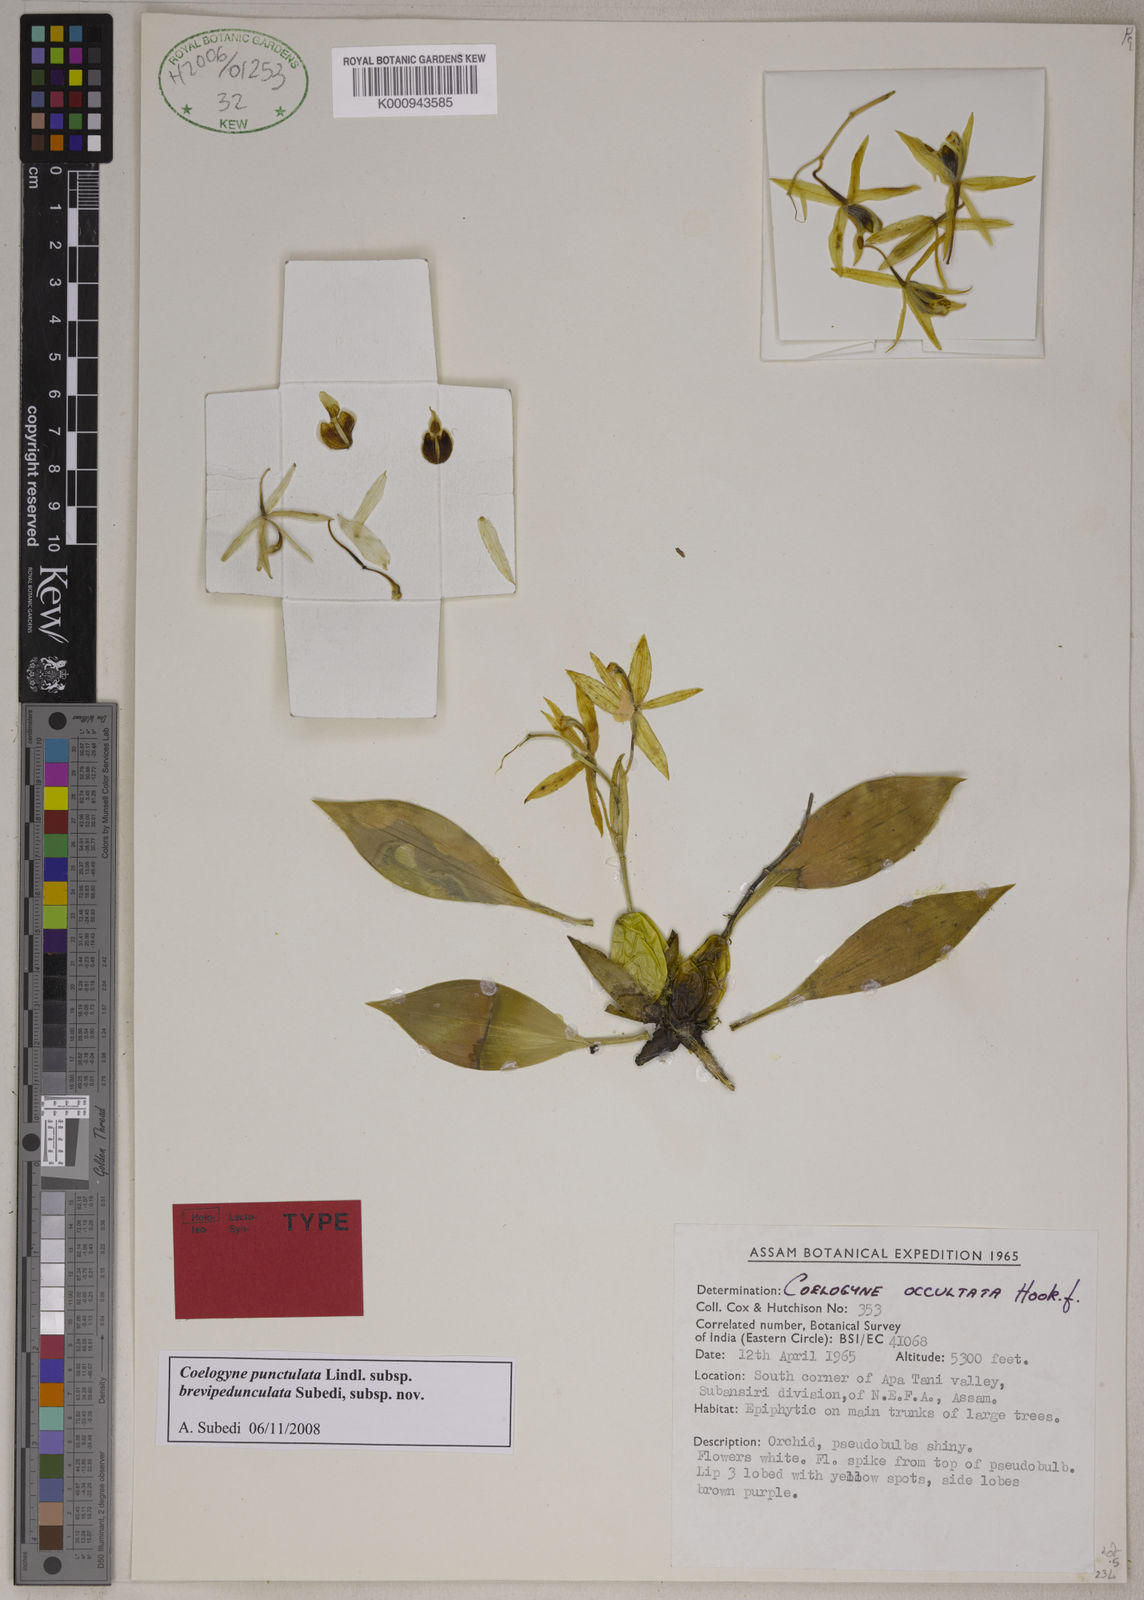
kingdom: Plantae
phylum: Tracheophyta
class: Liliopsida
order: Asparagales
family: Orchidaceae
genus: Coelogyne
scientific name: Coelogyne punctulata
